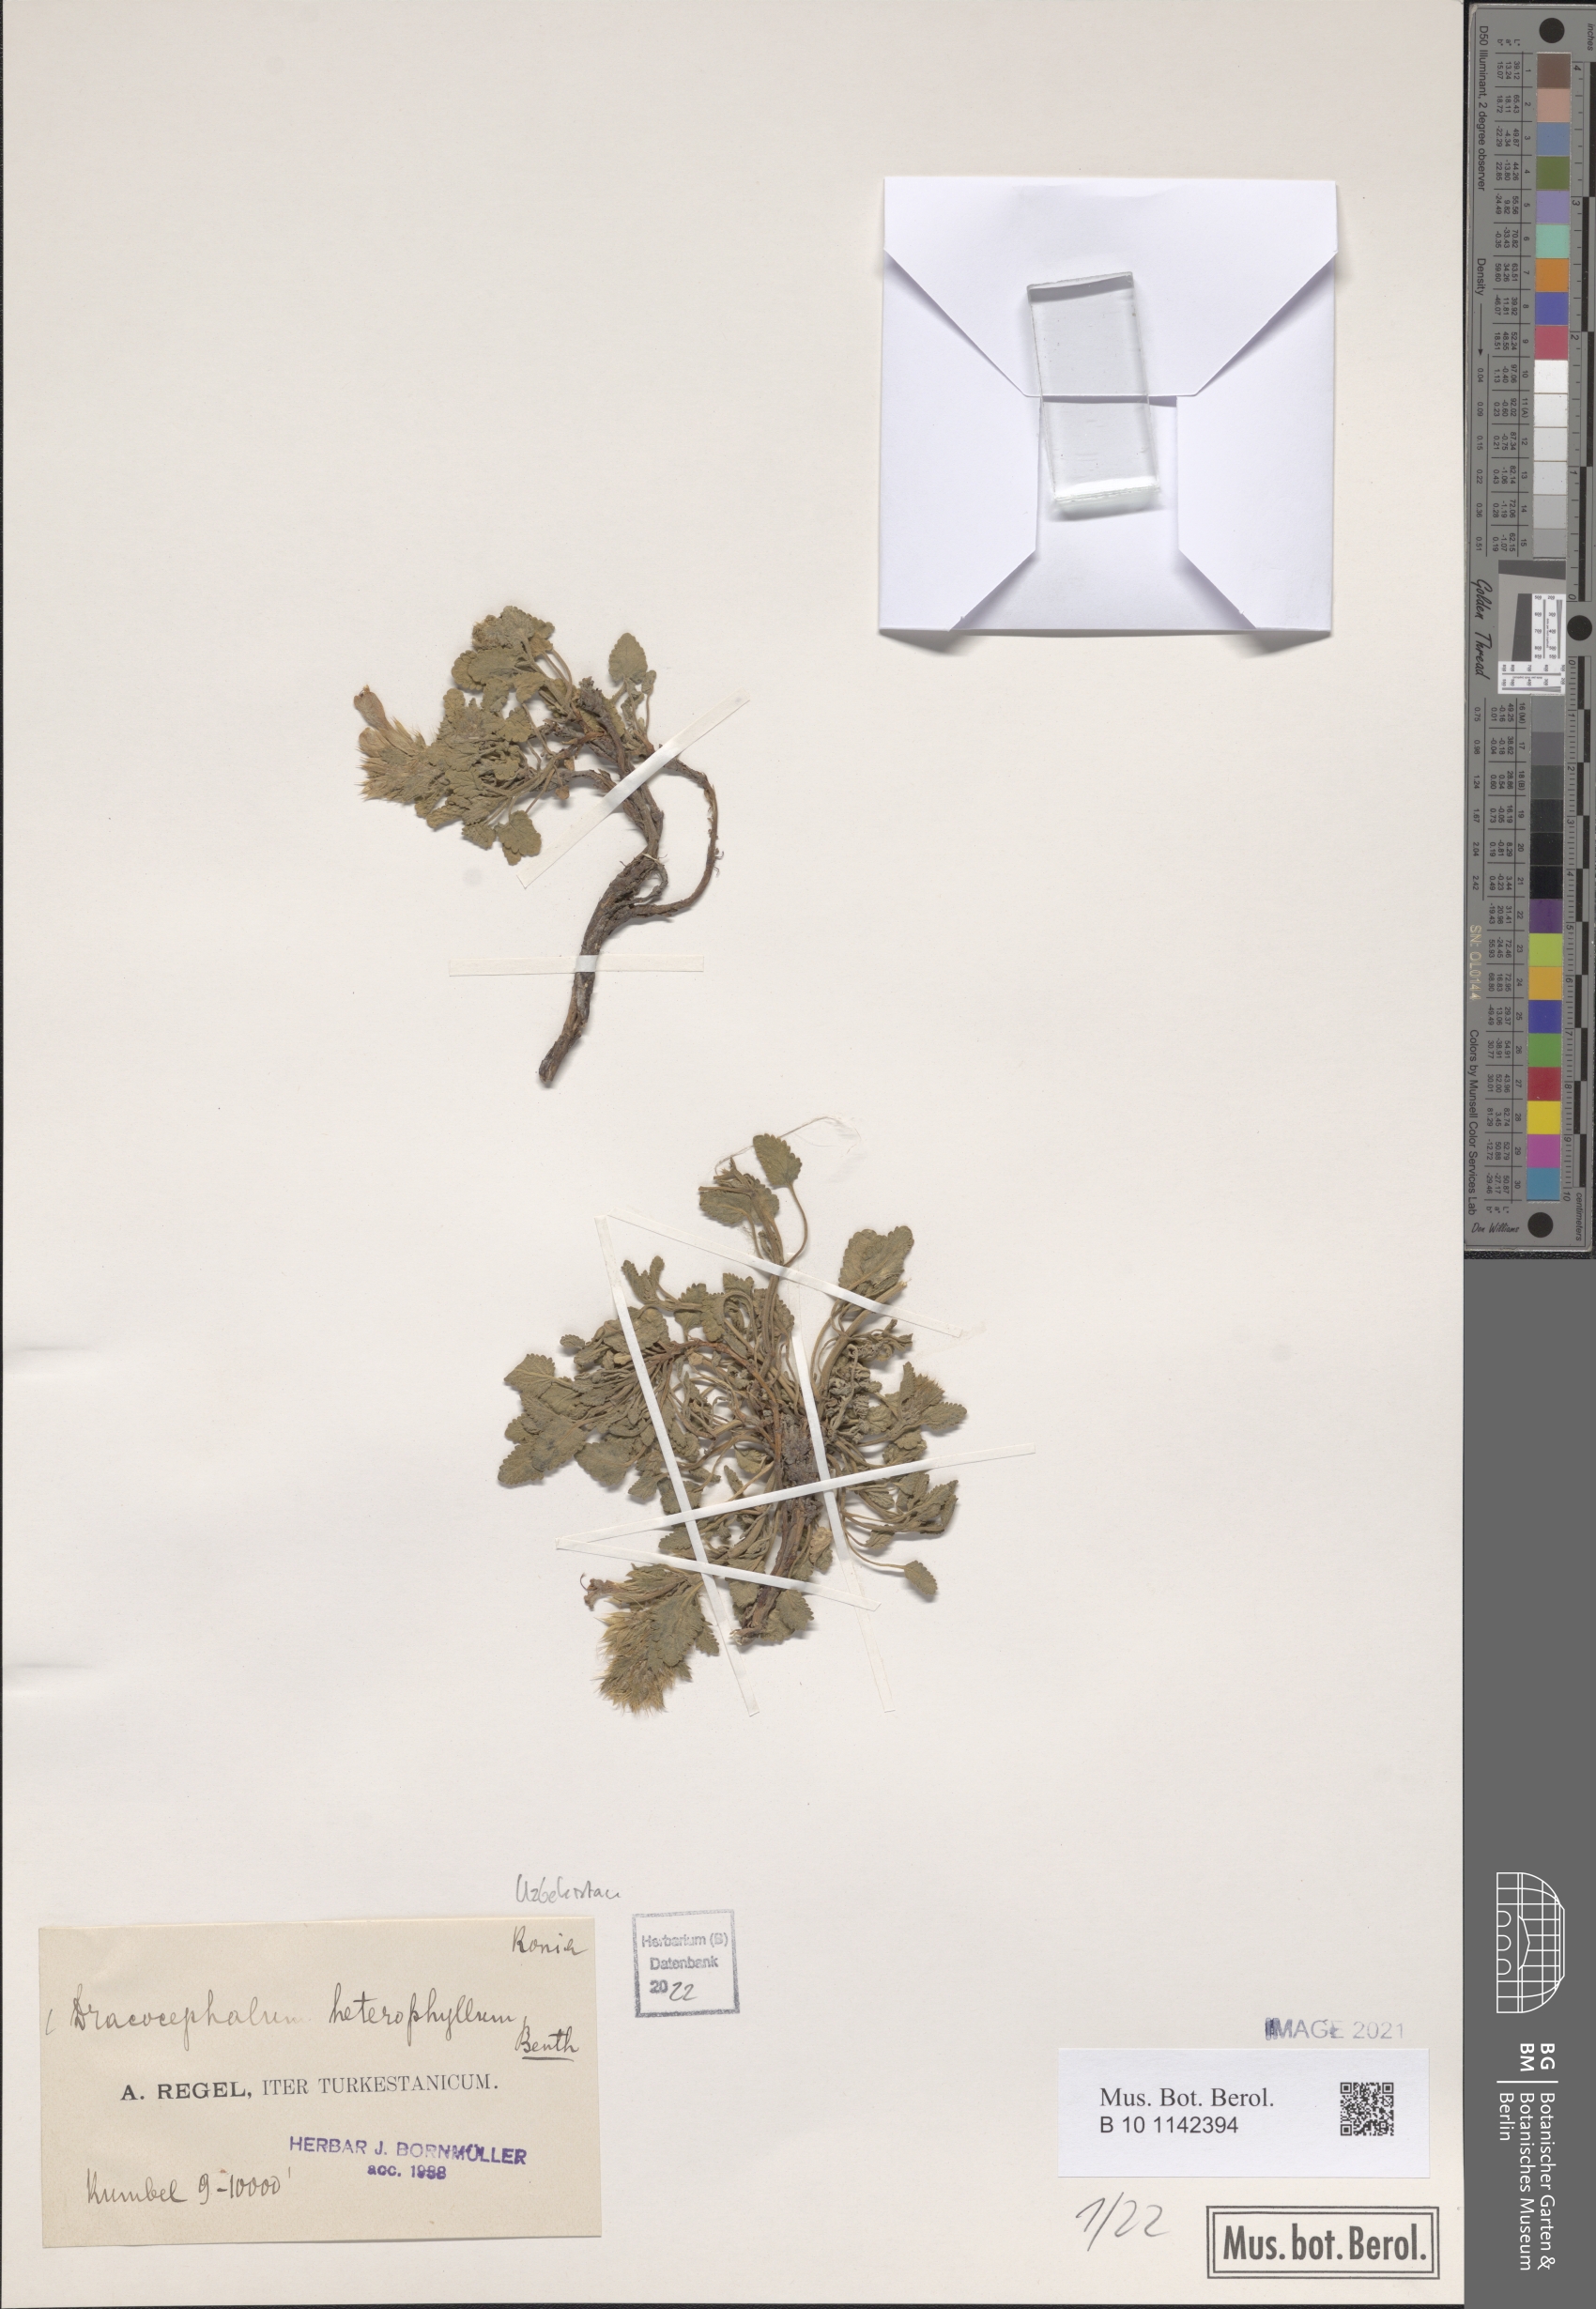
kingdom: Plantae
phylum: Tracheophyta
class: Magnoliopsida
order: Lamiales
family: Lamiaceae
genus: Dracocephalum
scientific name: Dracocephalum heterophyllum
